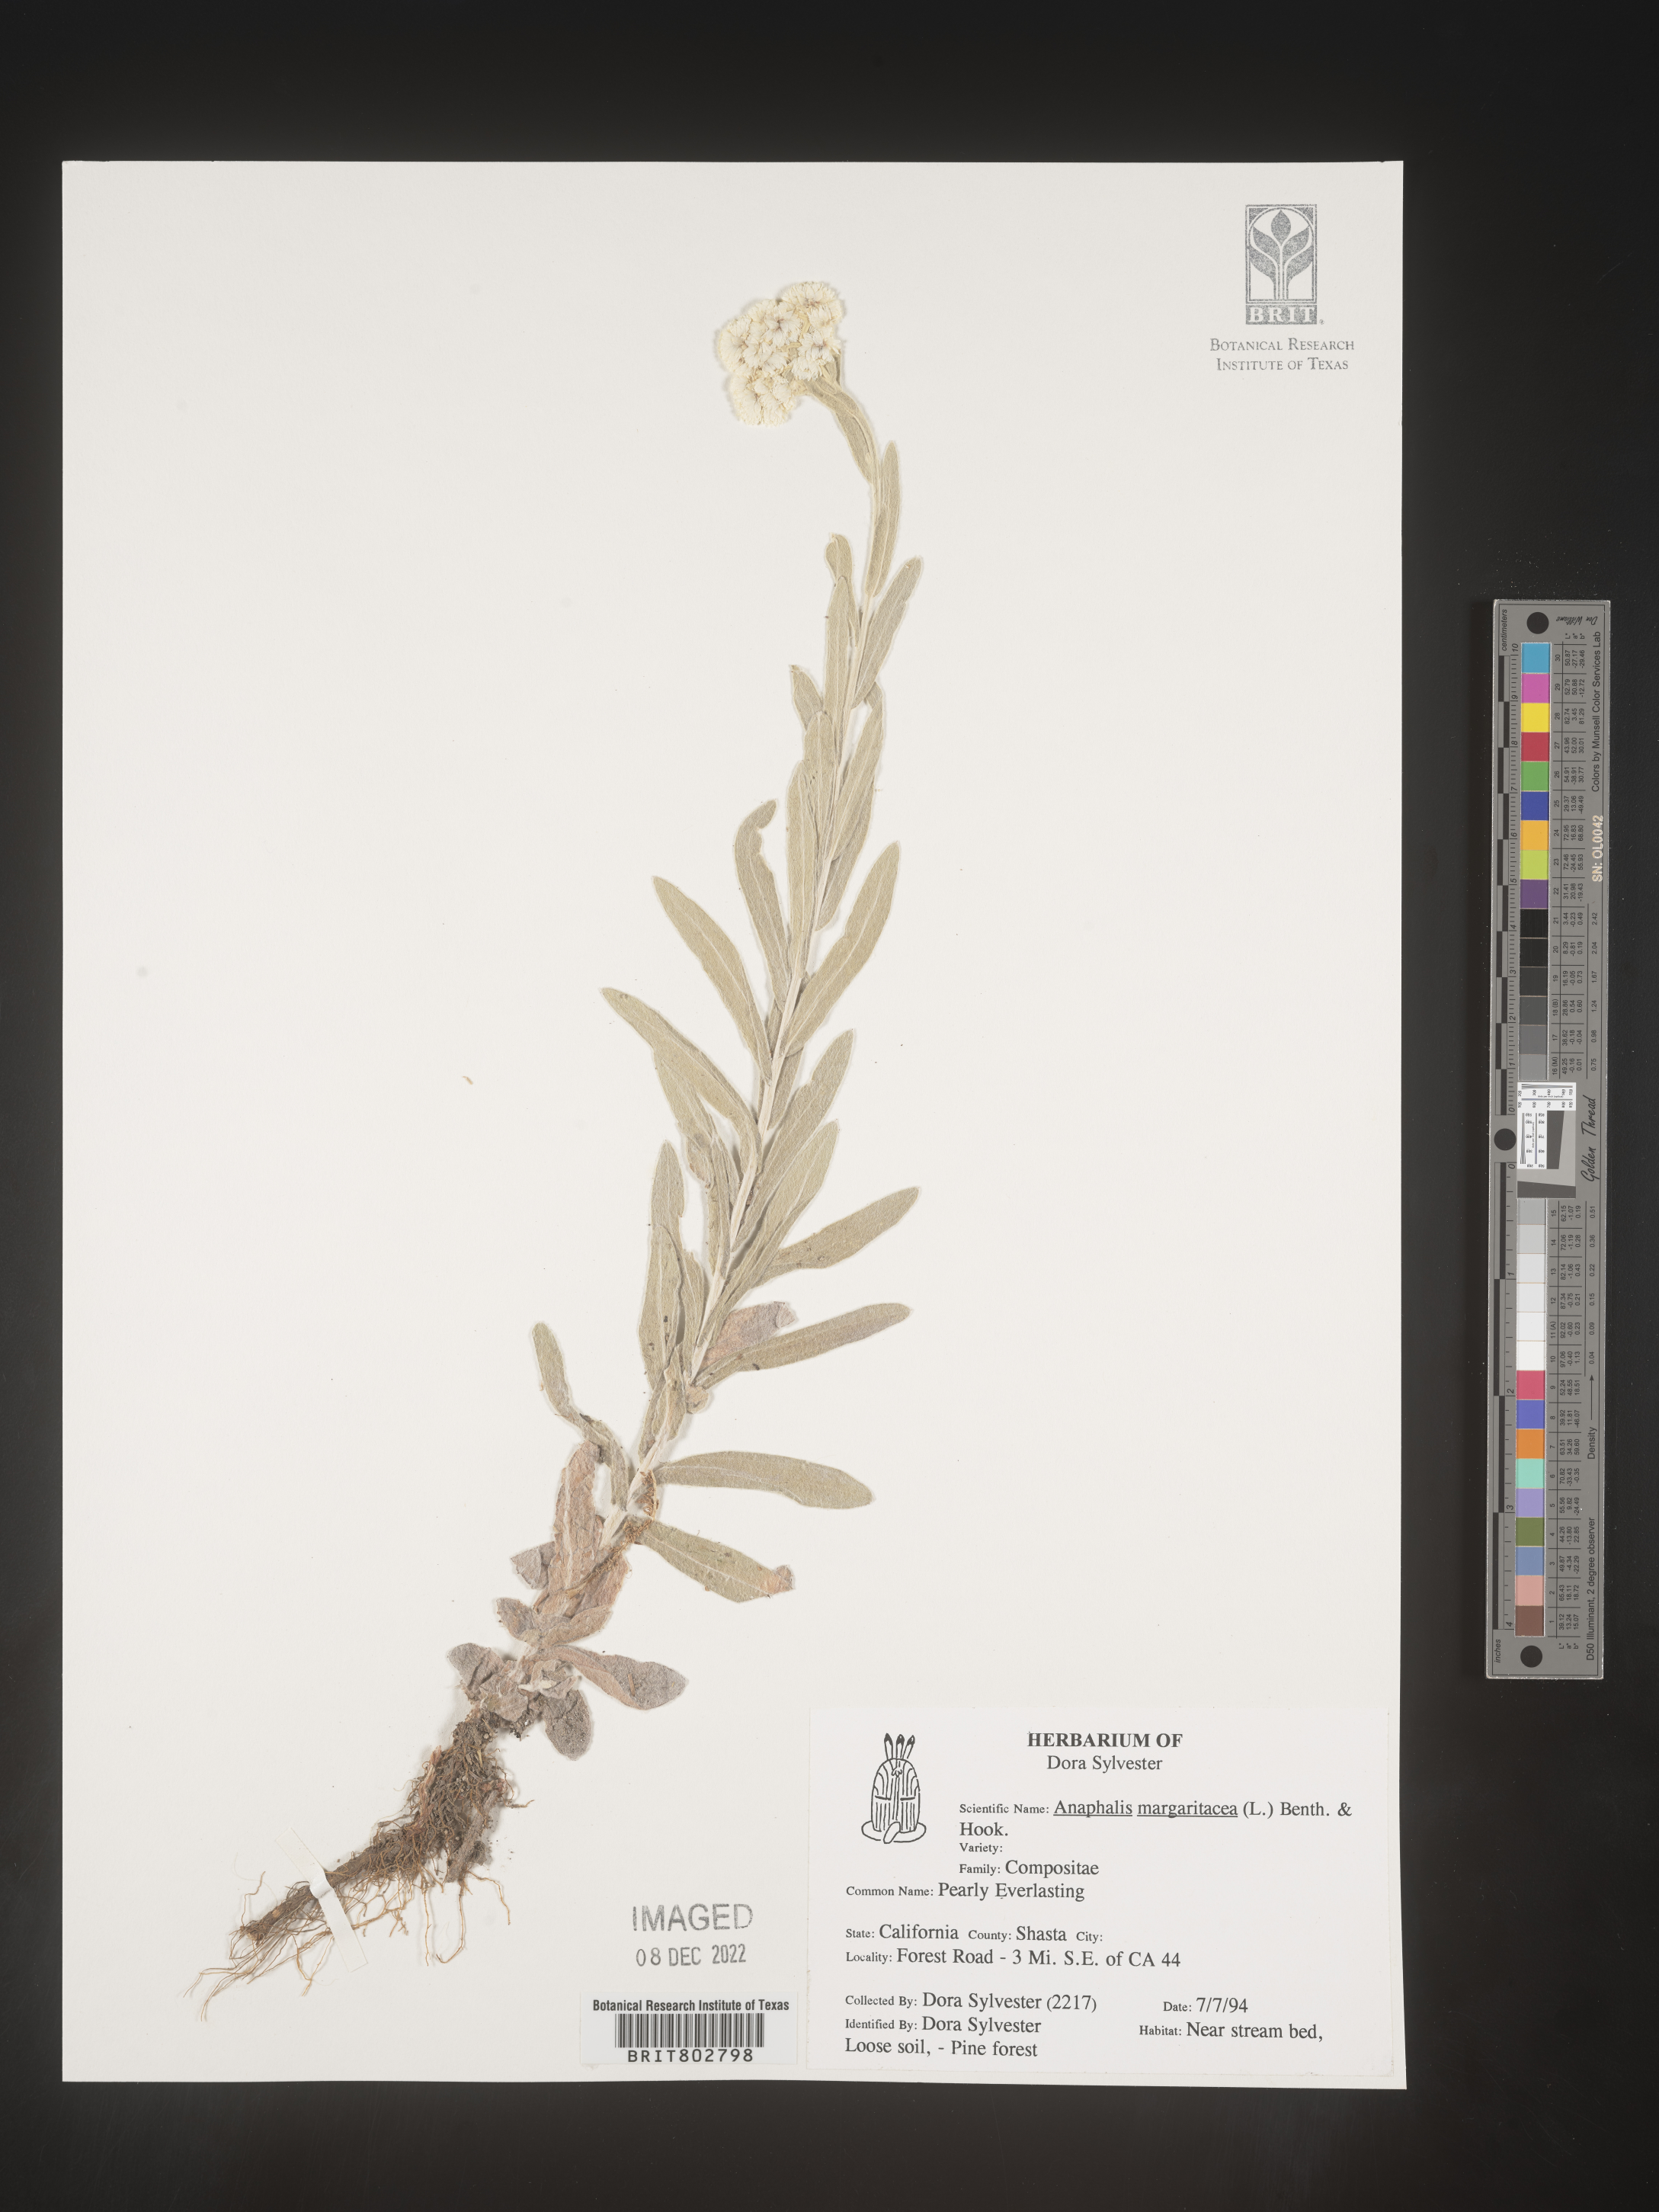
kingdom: Plantae
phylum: Tracheophyta
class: Magnoliopsida
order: Asterales
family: Asteraceae
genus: Anaphalis
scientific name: Anaphalis margaritacea
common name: Pearly everlasting
